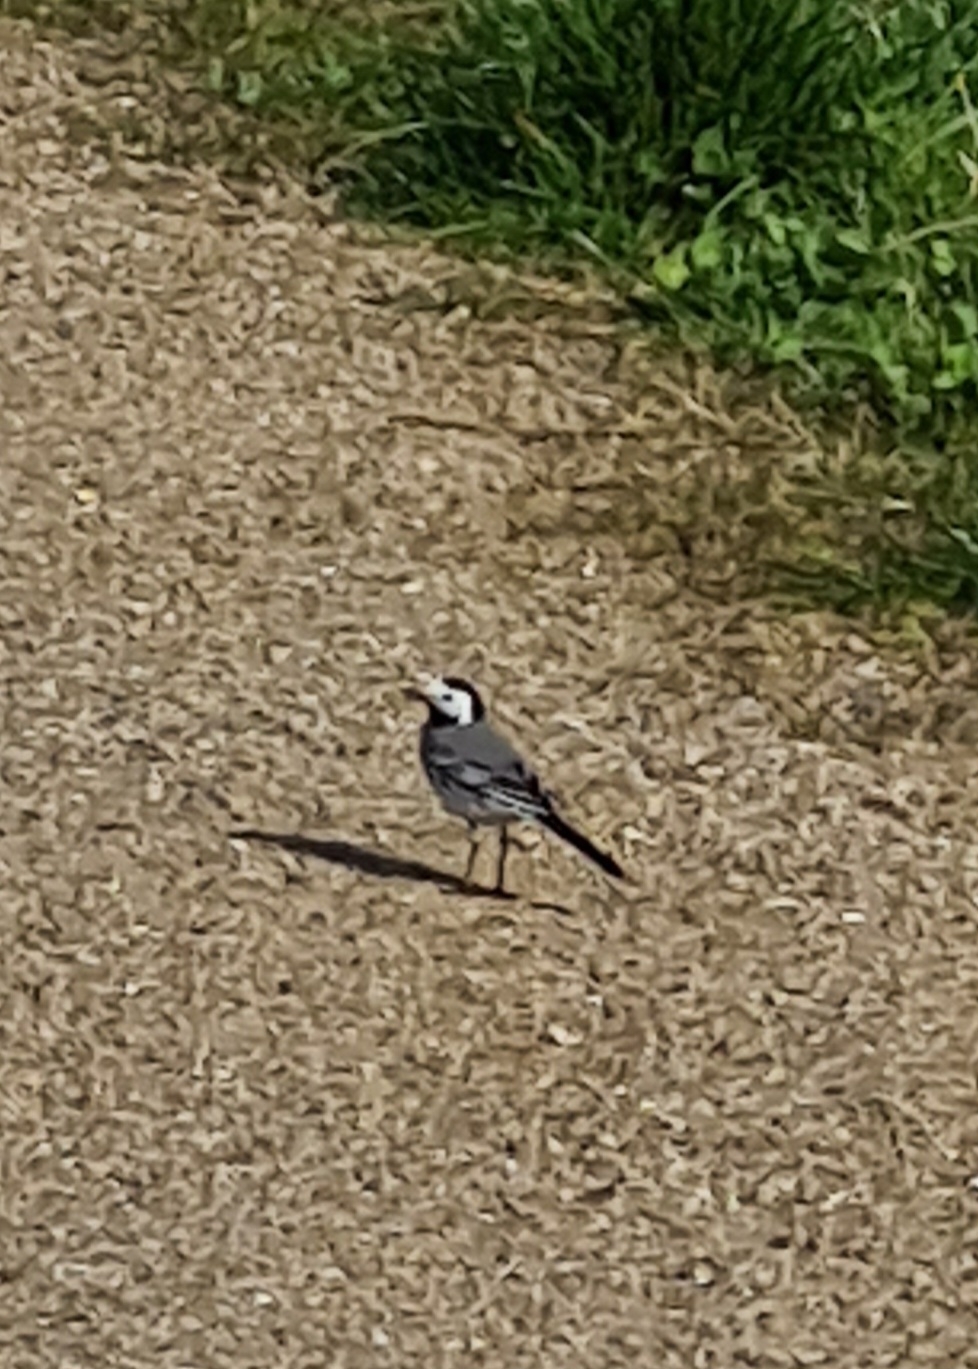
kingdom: Animalia
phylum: Chordata
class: Aves
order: Passeriformes
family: Motacillidae
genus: Motacilla
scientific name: Motacilla alba
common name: Hvid vipstjert
